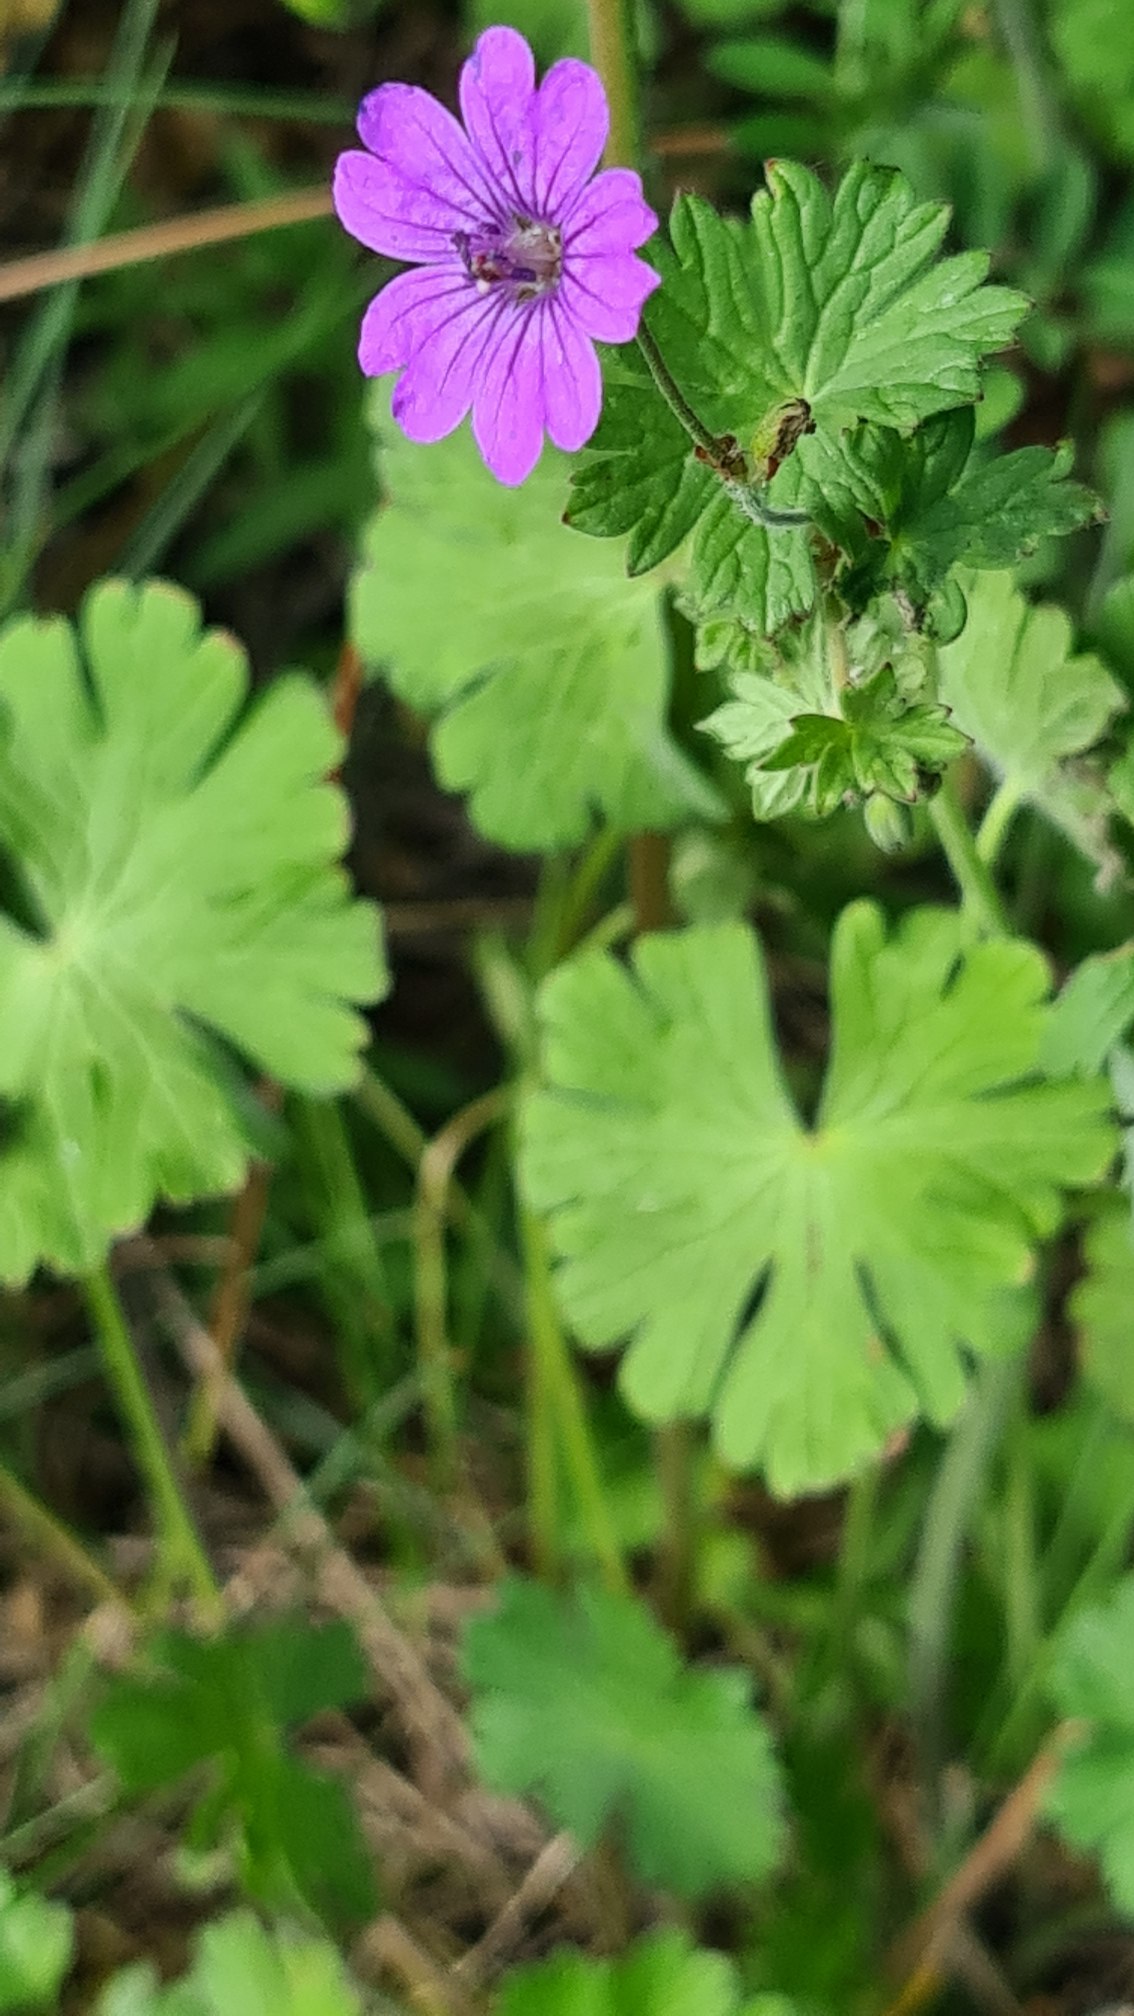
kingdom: Plantae
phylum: Tracheophyta
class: Magnoliopsida
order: Geraniales
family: Geraniaceae
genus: Geranium
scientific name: Geranium molle
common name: Blød storkenæb
